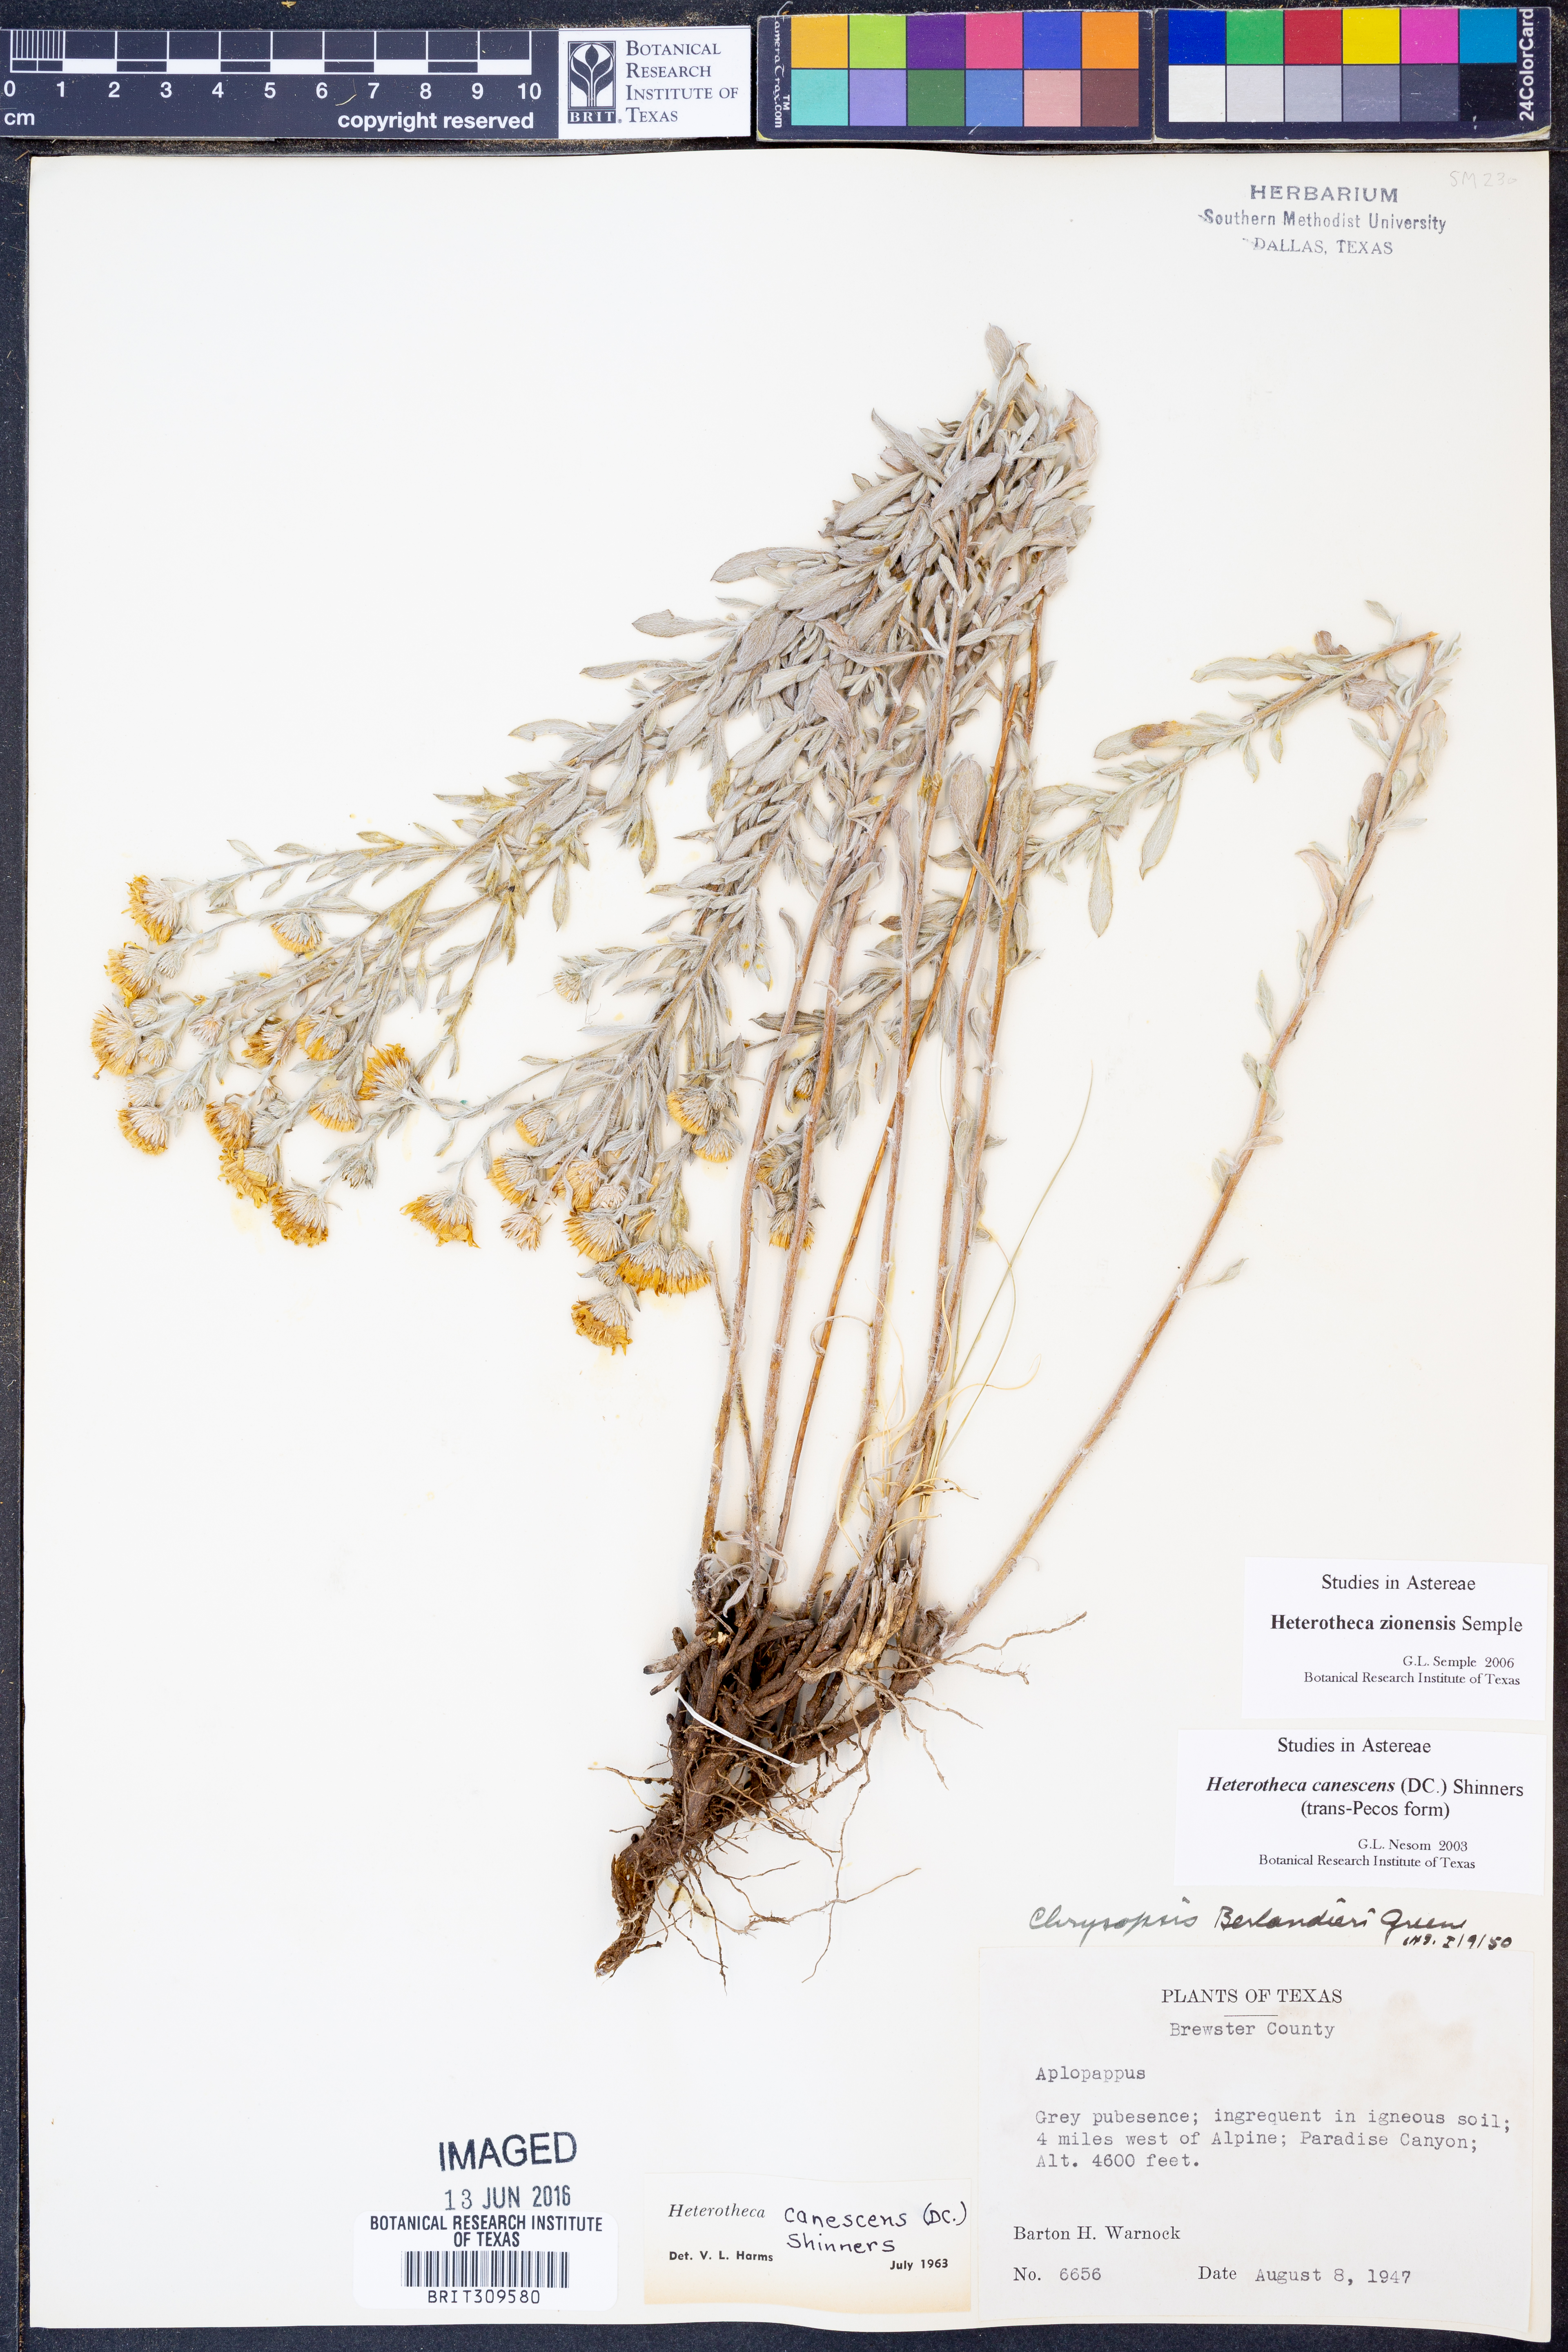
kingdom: Plantae
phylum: Tracheophyta
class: Magnoliopsida
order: Asterales
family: Asteraceae
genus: Heterotheca
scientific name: Heterotheca zionensis
